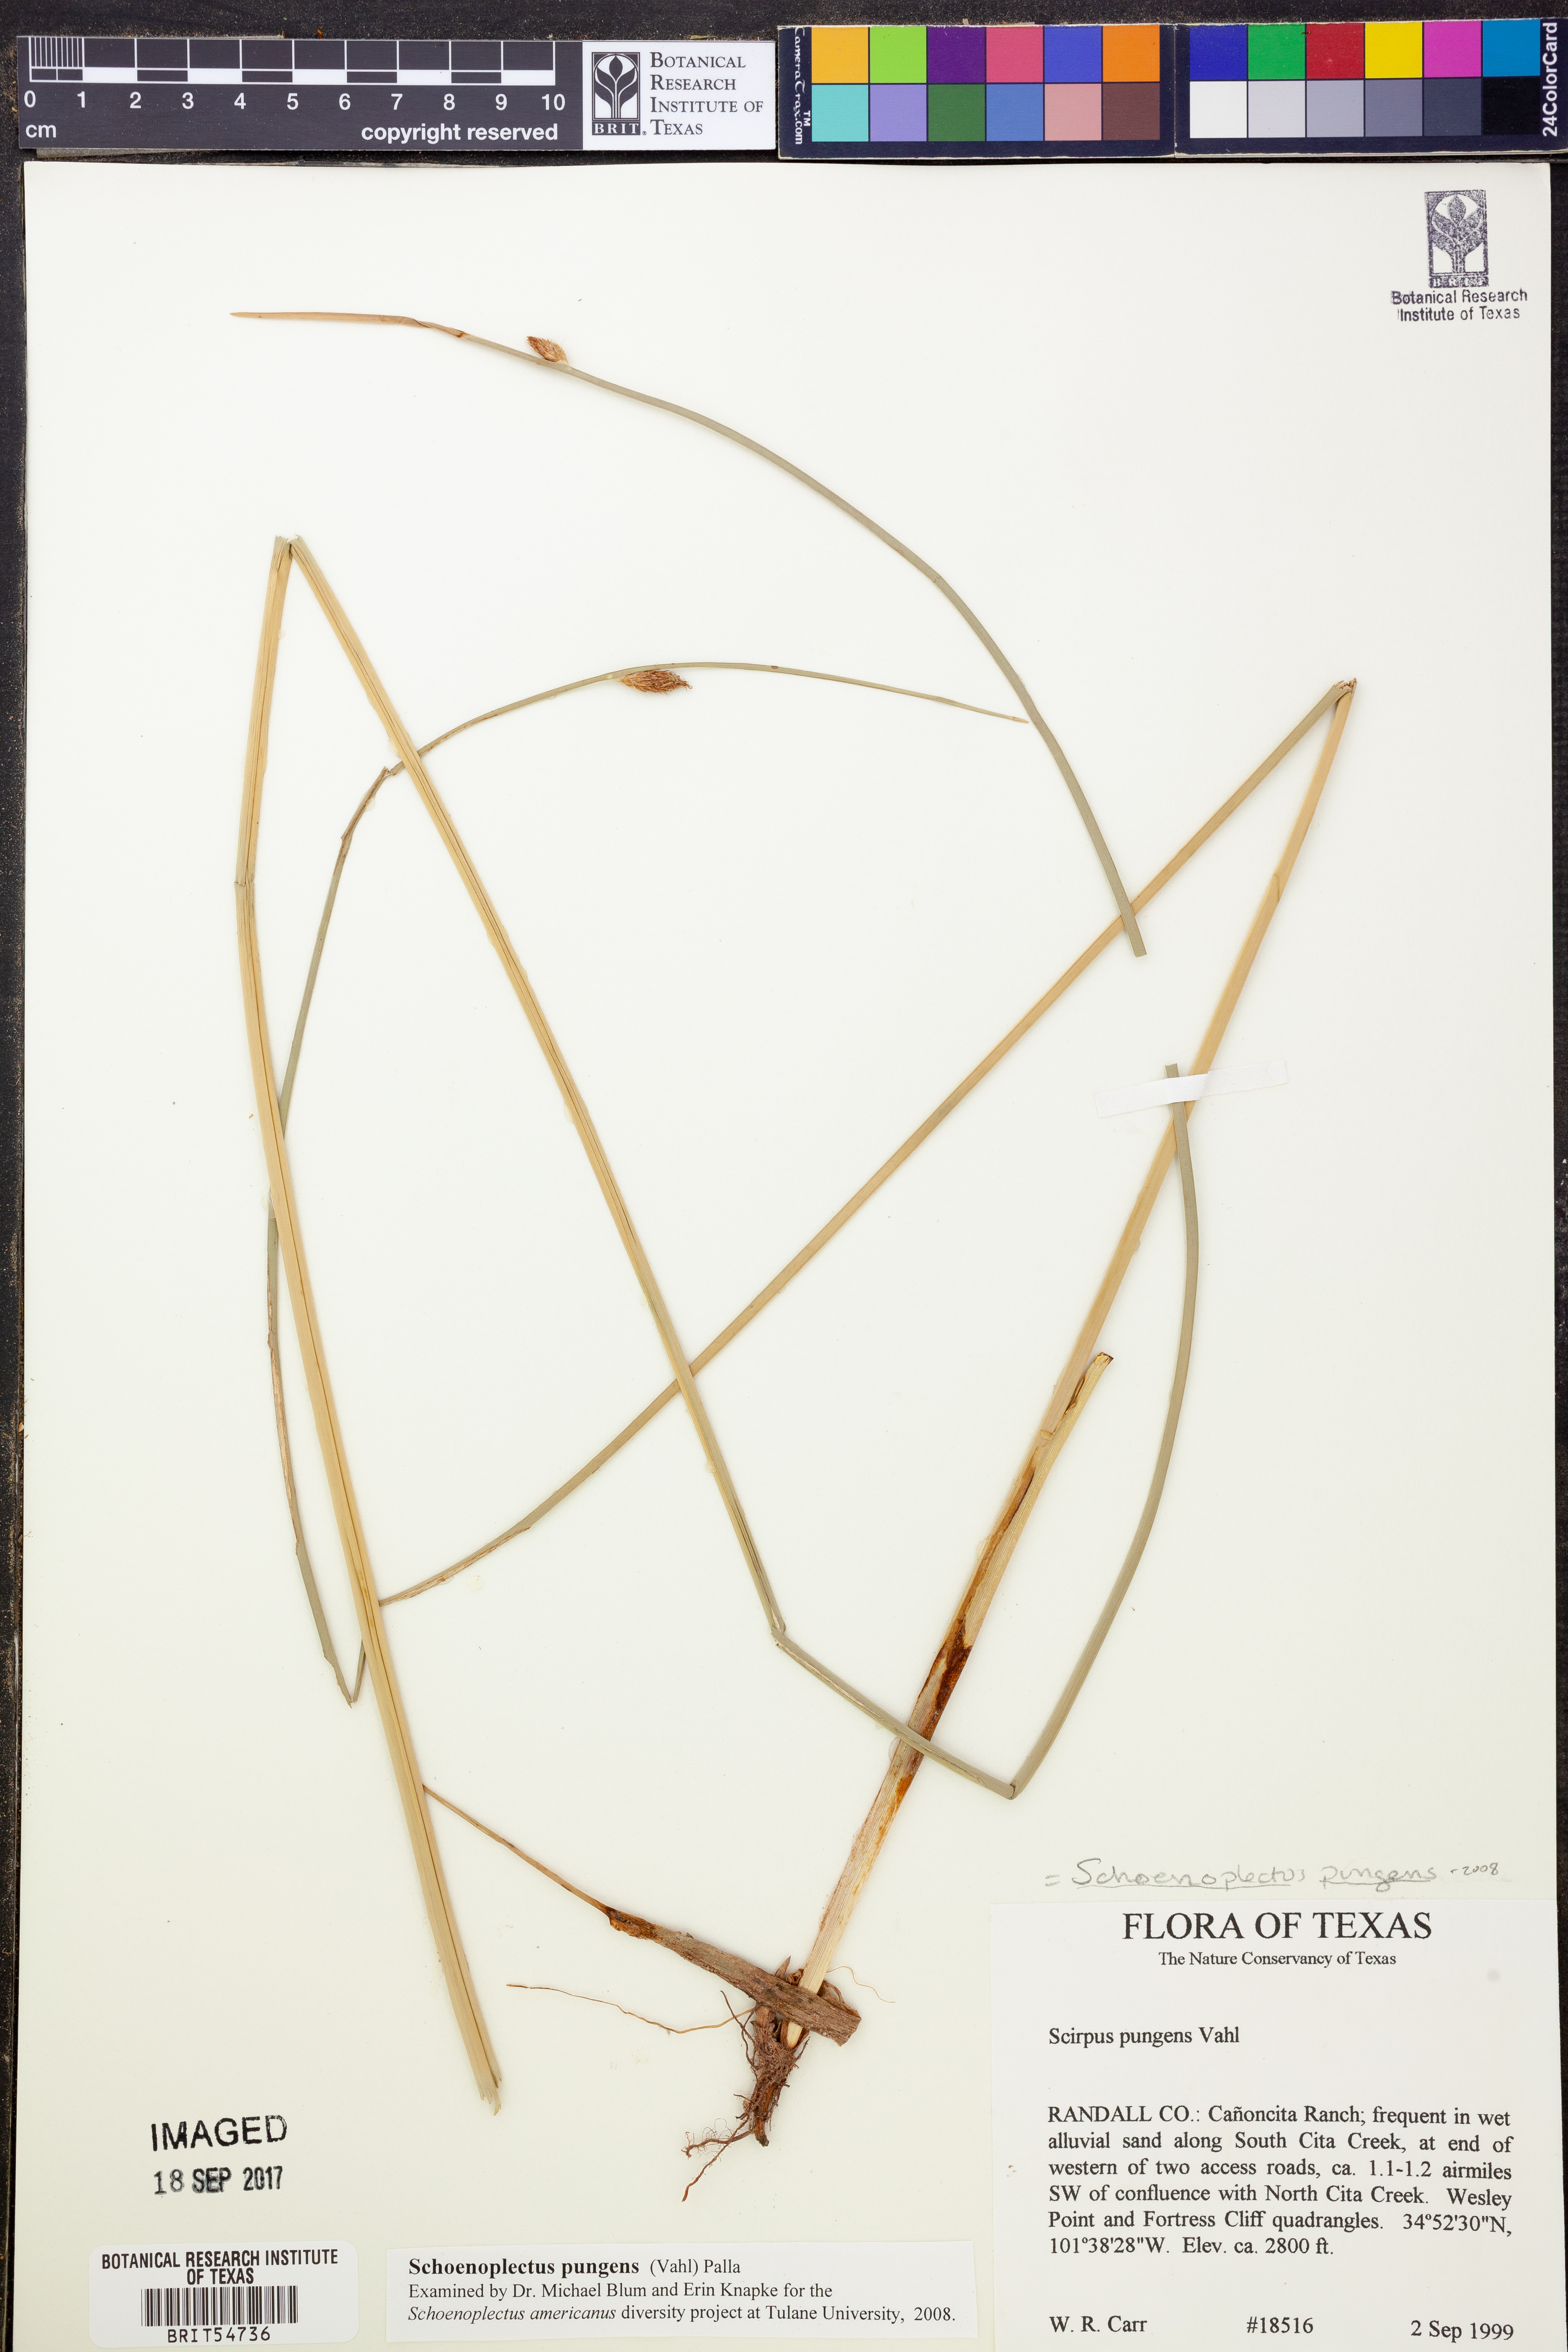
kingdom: Plantae
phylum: Tracheophyta
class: Liliopsida
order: Poales
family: Cyperaceae
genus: Schoenoplectus
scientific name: Schoenoplectus lacustris
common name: Common club-rush
